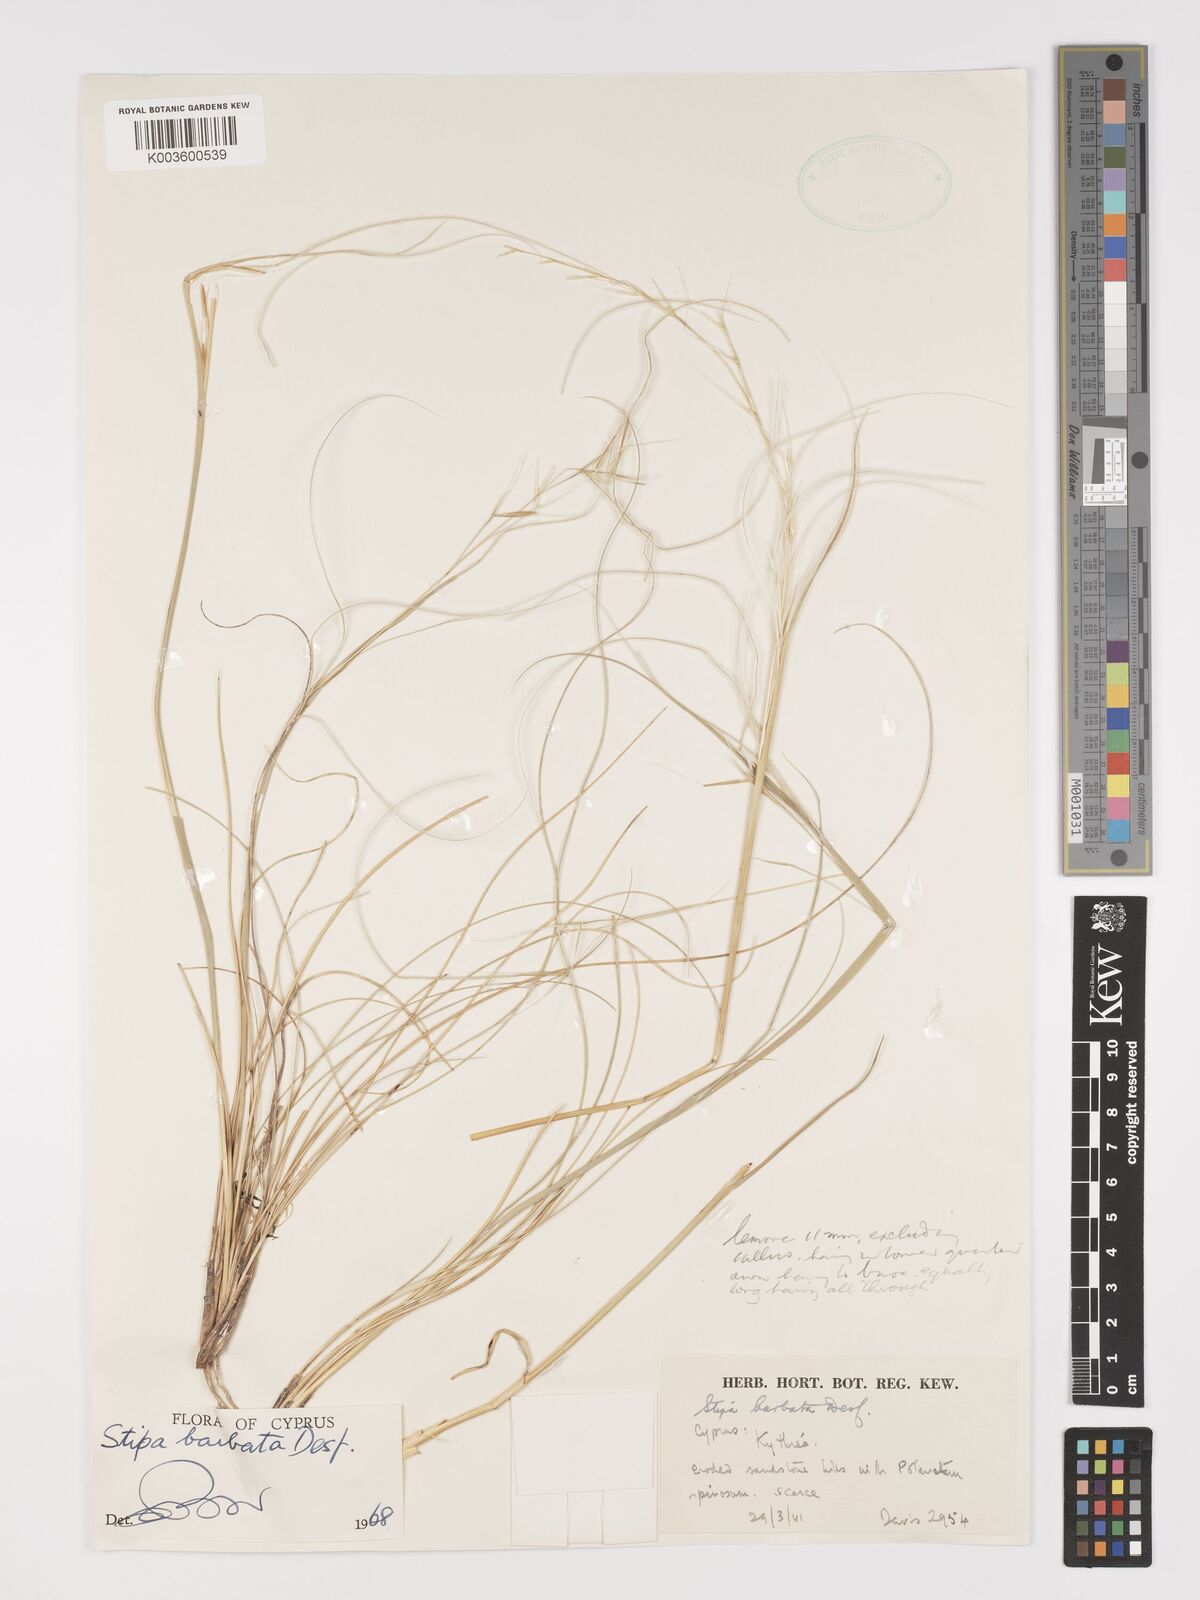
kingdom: Plantae
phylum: Tracheophyta
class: Liliopsida
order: Poales
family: Poaceae
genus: Stipa
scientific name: Stipa barbata
